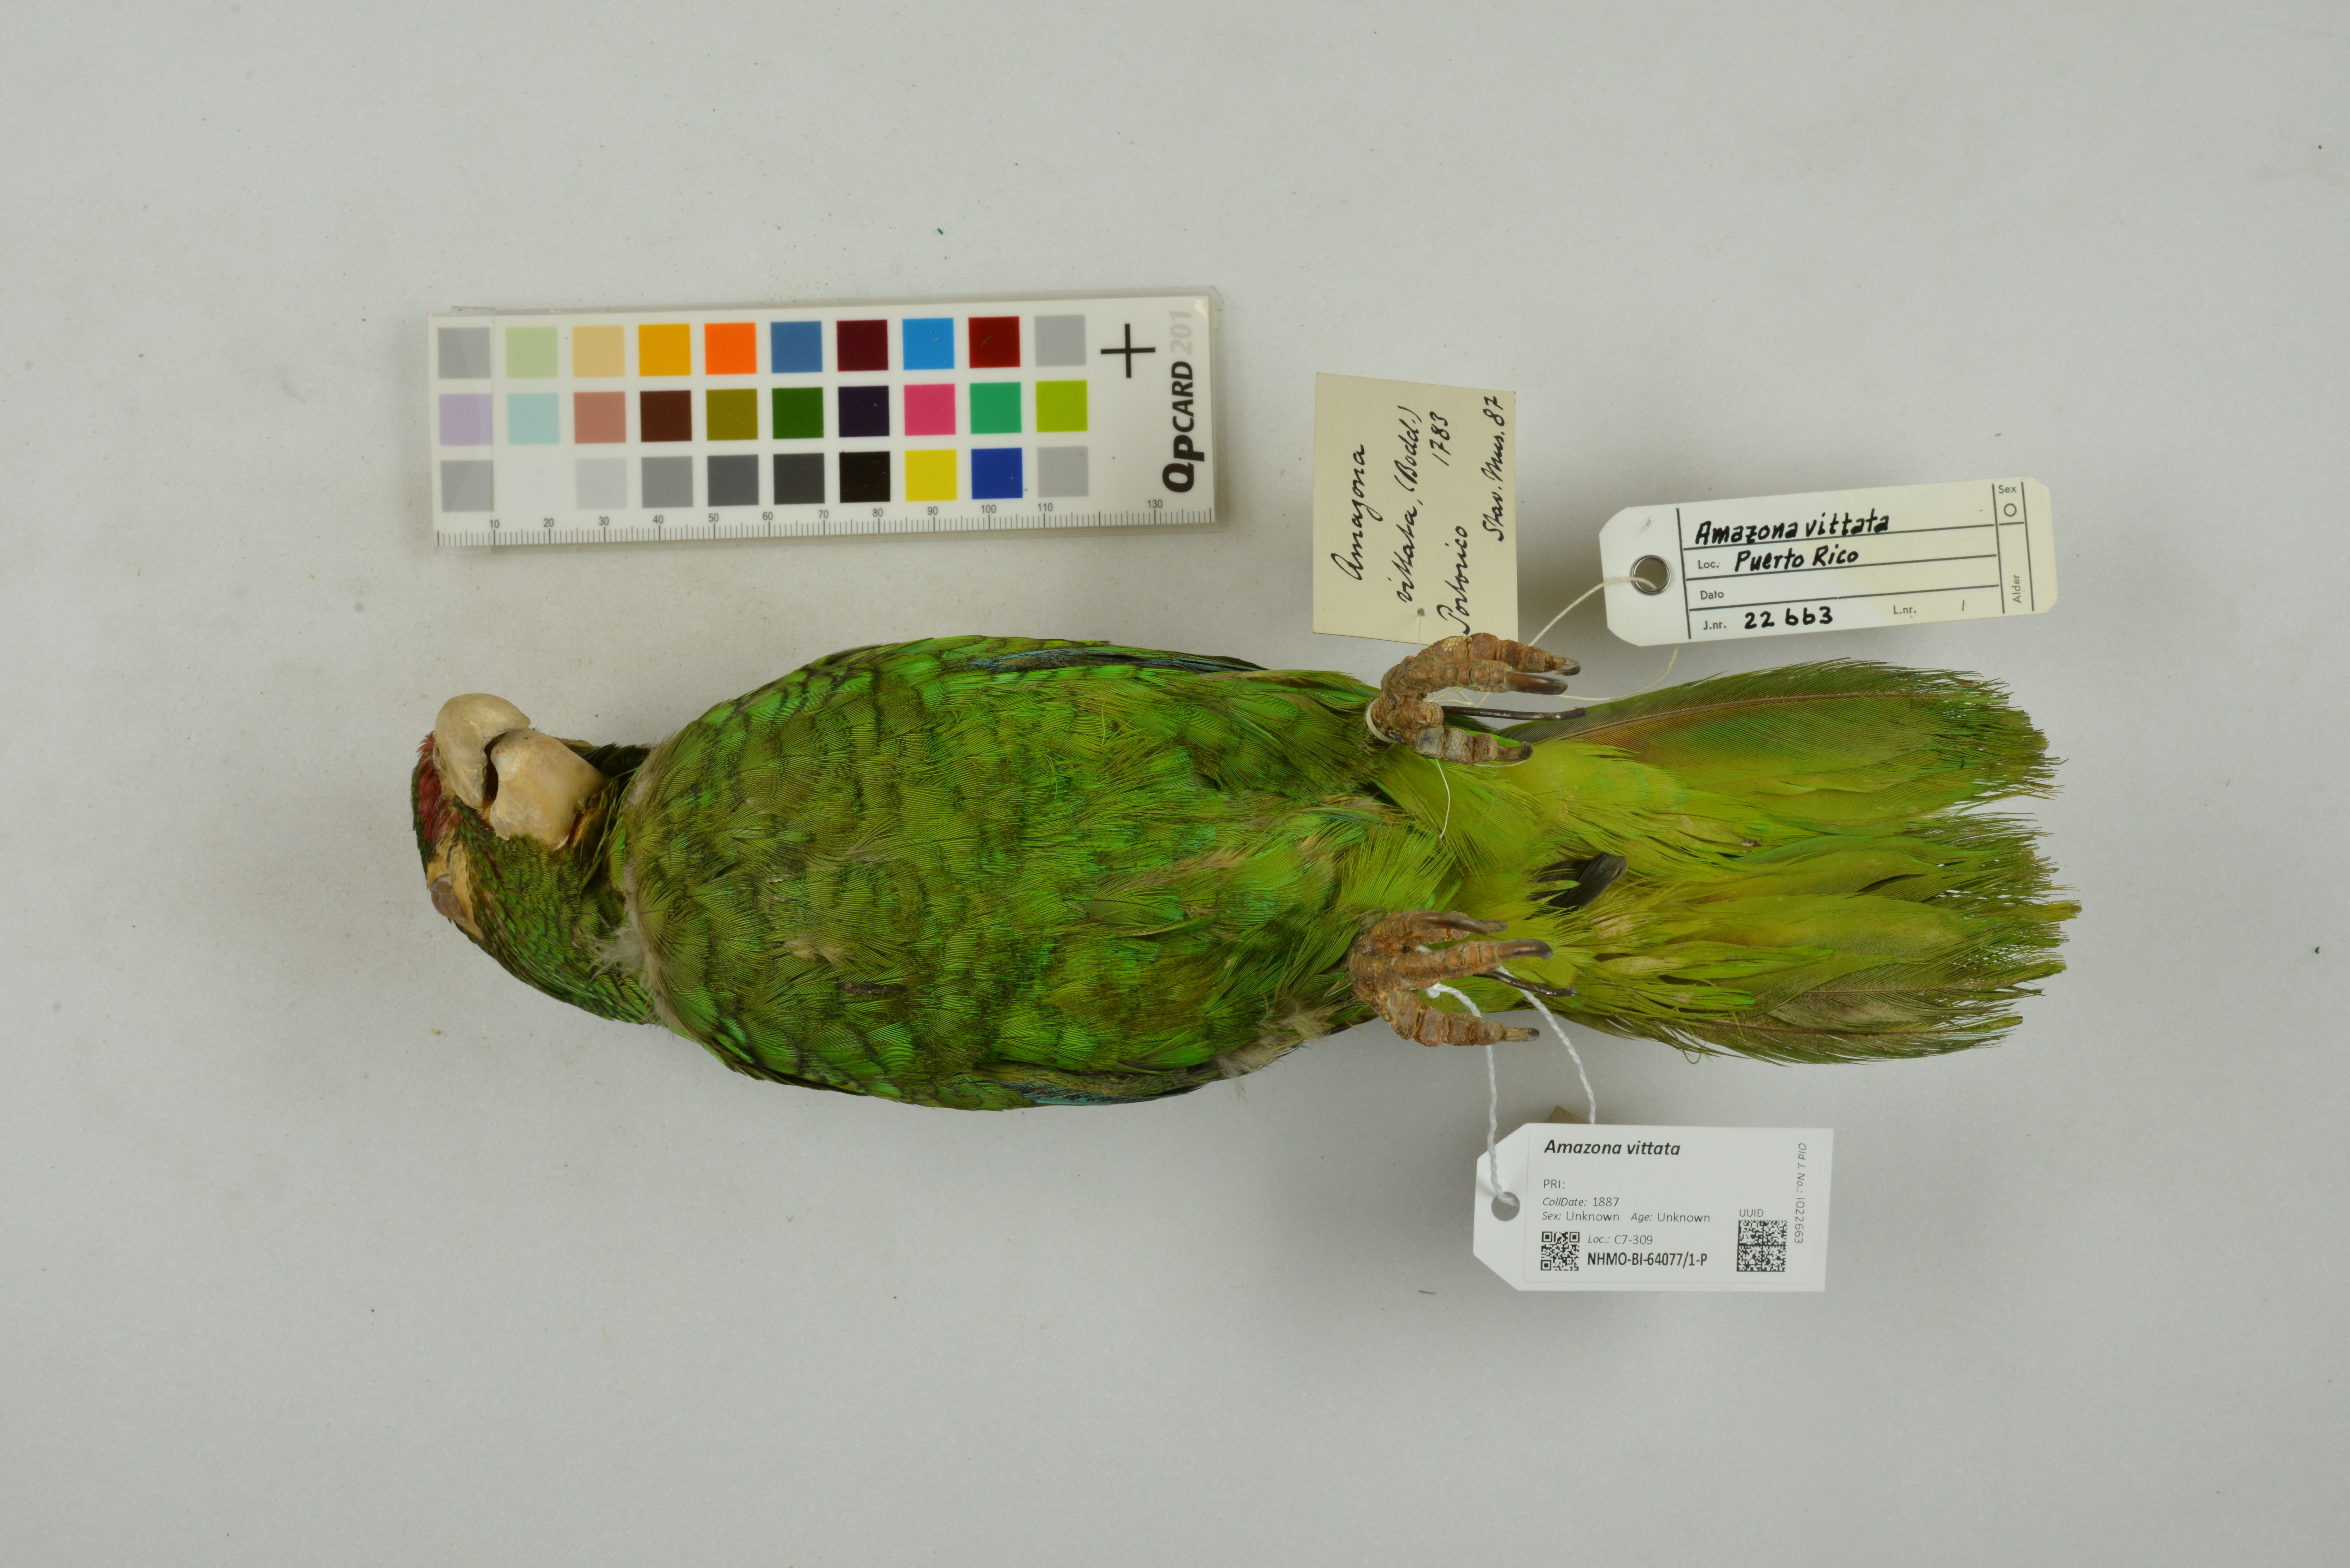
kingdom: Animalia
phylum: Chordata
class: Aves
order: Psittaciformes
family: Psittacidae
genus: Amazona
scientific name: Amazona vittata
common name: Puerto rican amazon
